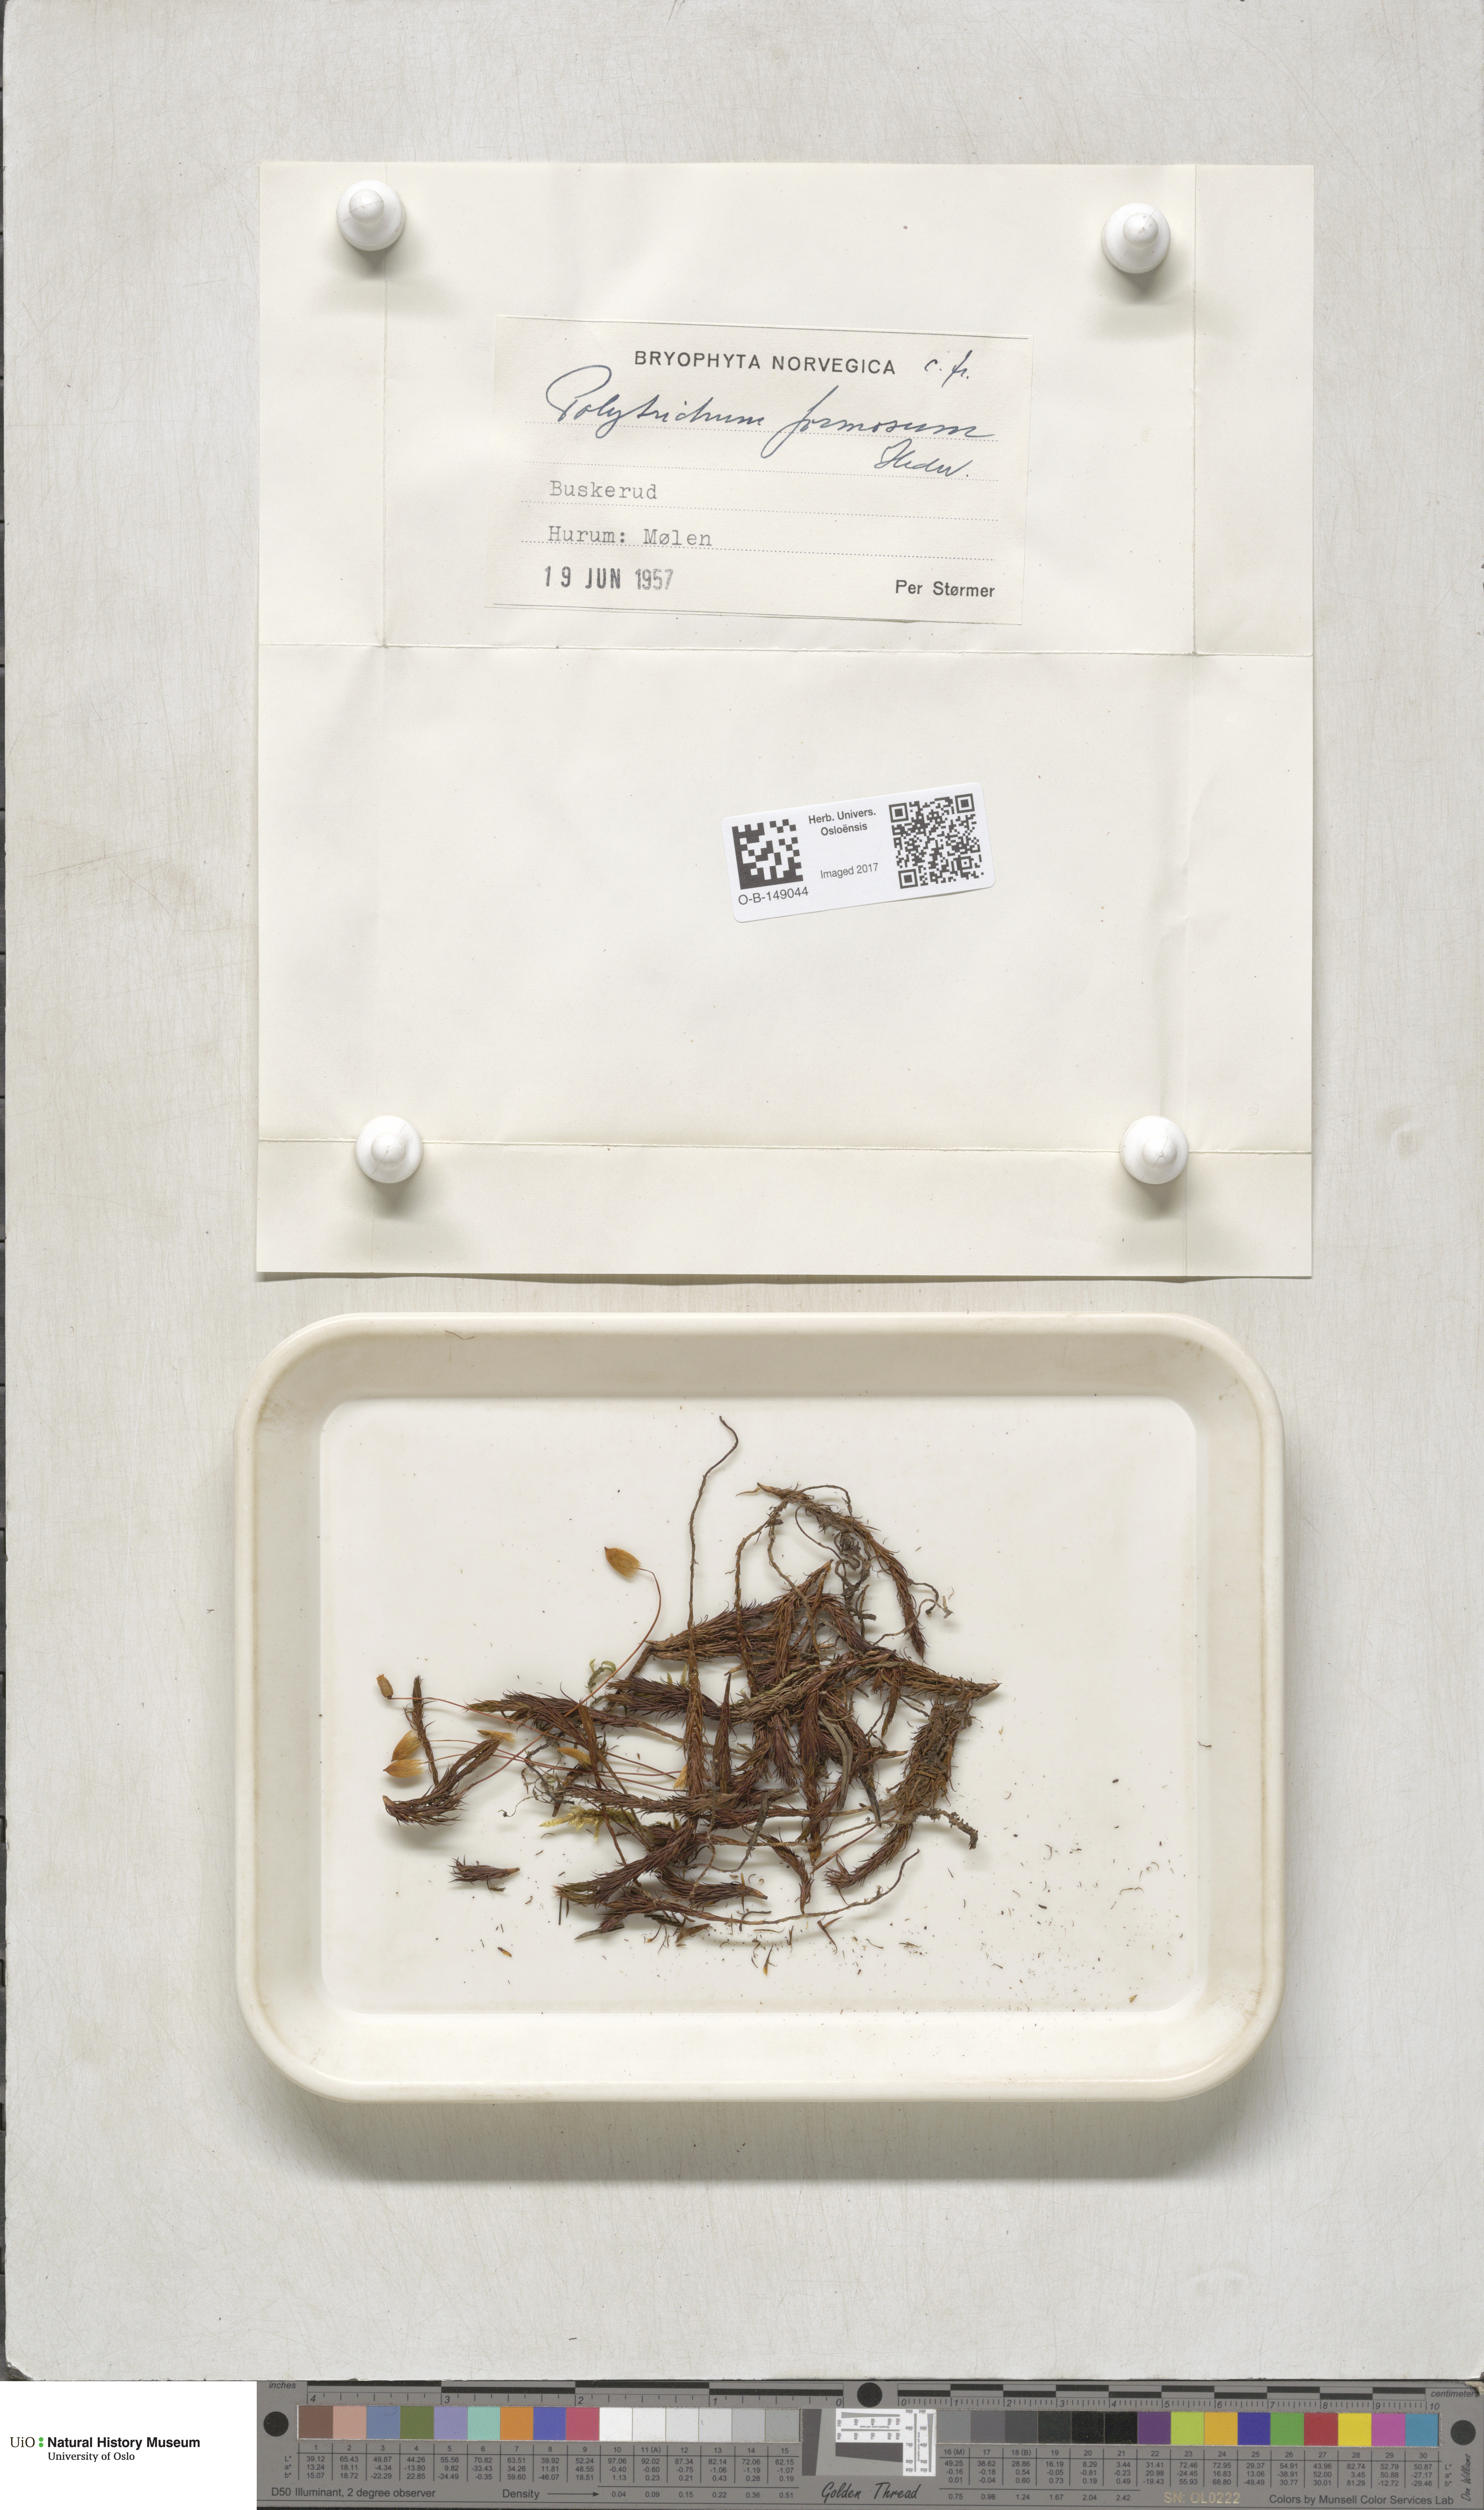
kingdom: Plantae
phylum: Bryophyta
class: Polytrichopsida
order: Polytrichales
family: Polytrichaceae
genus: Polytrichum
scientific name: Polytrichum formosum
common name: Bank haircap moss
